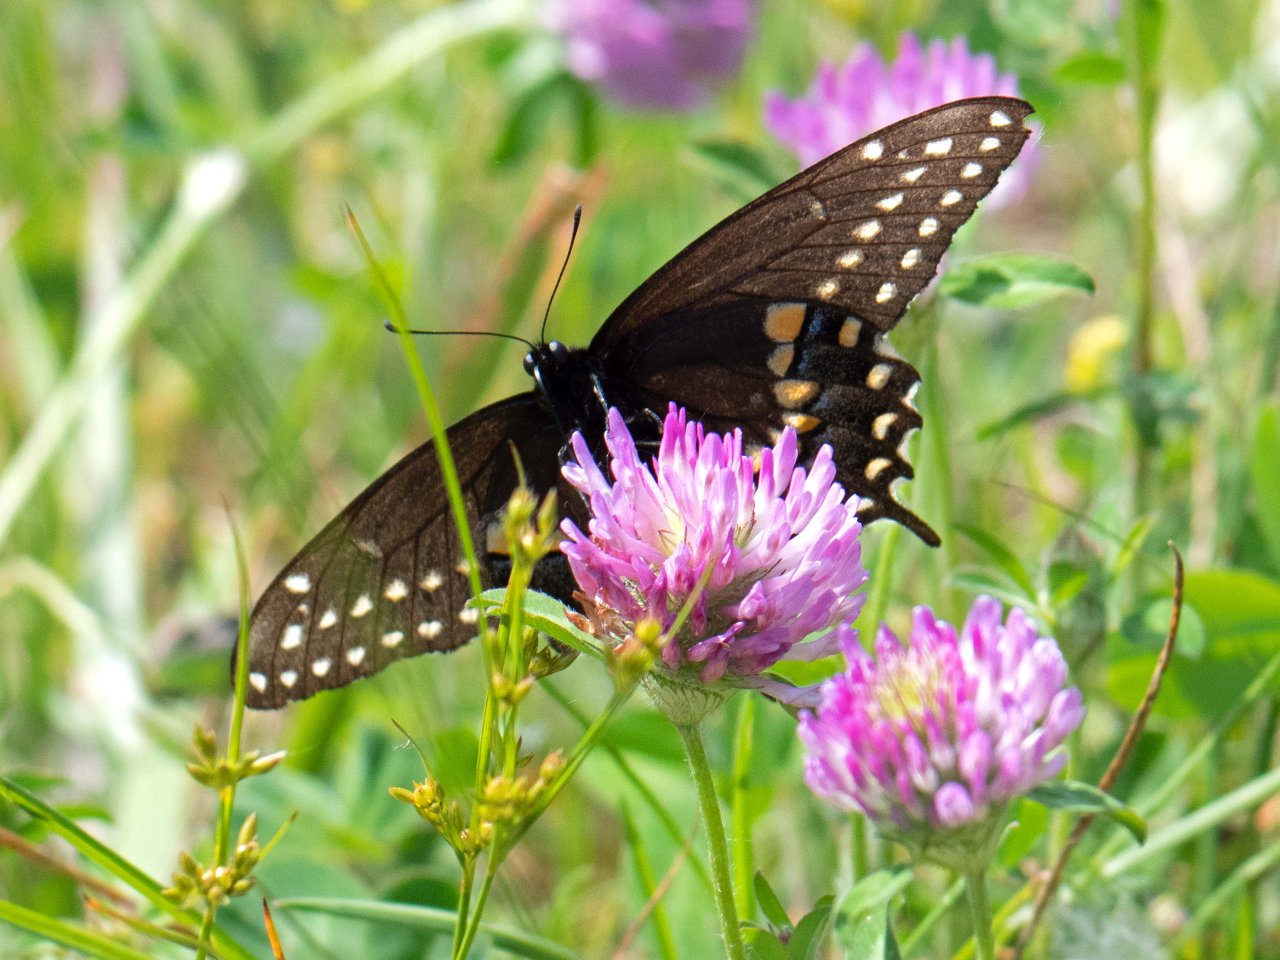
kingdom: Animalia
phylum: Arthropoda
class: Insecta
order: Lepidoptera
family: Papilionidae
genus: Papilio
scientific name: Papilio polyxenes
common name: Black Swallowtail
